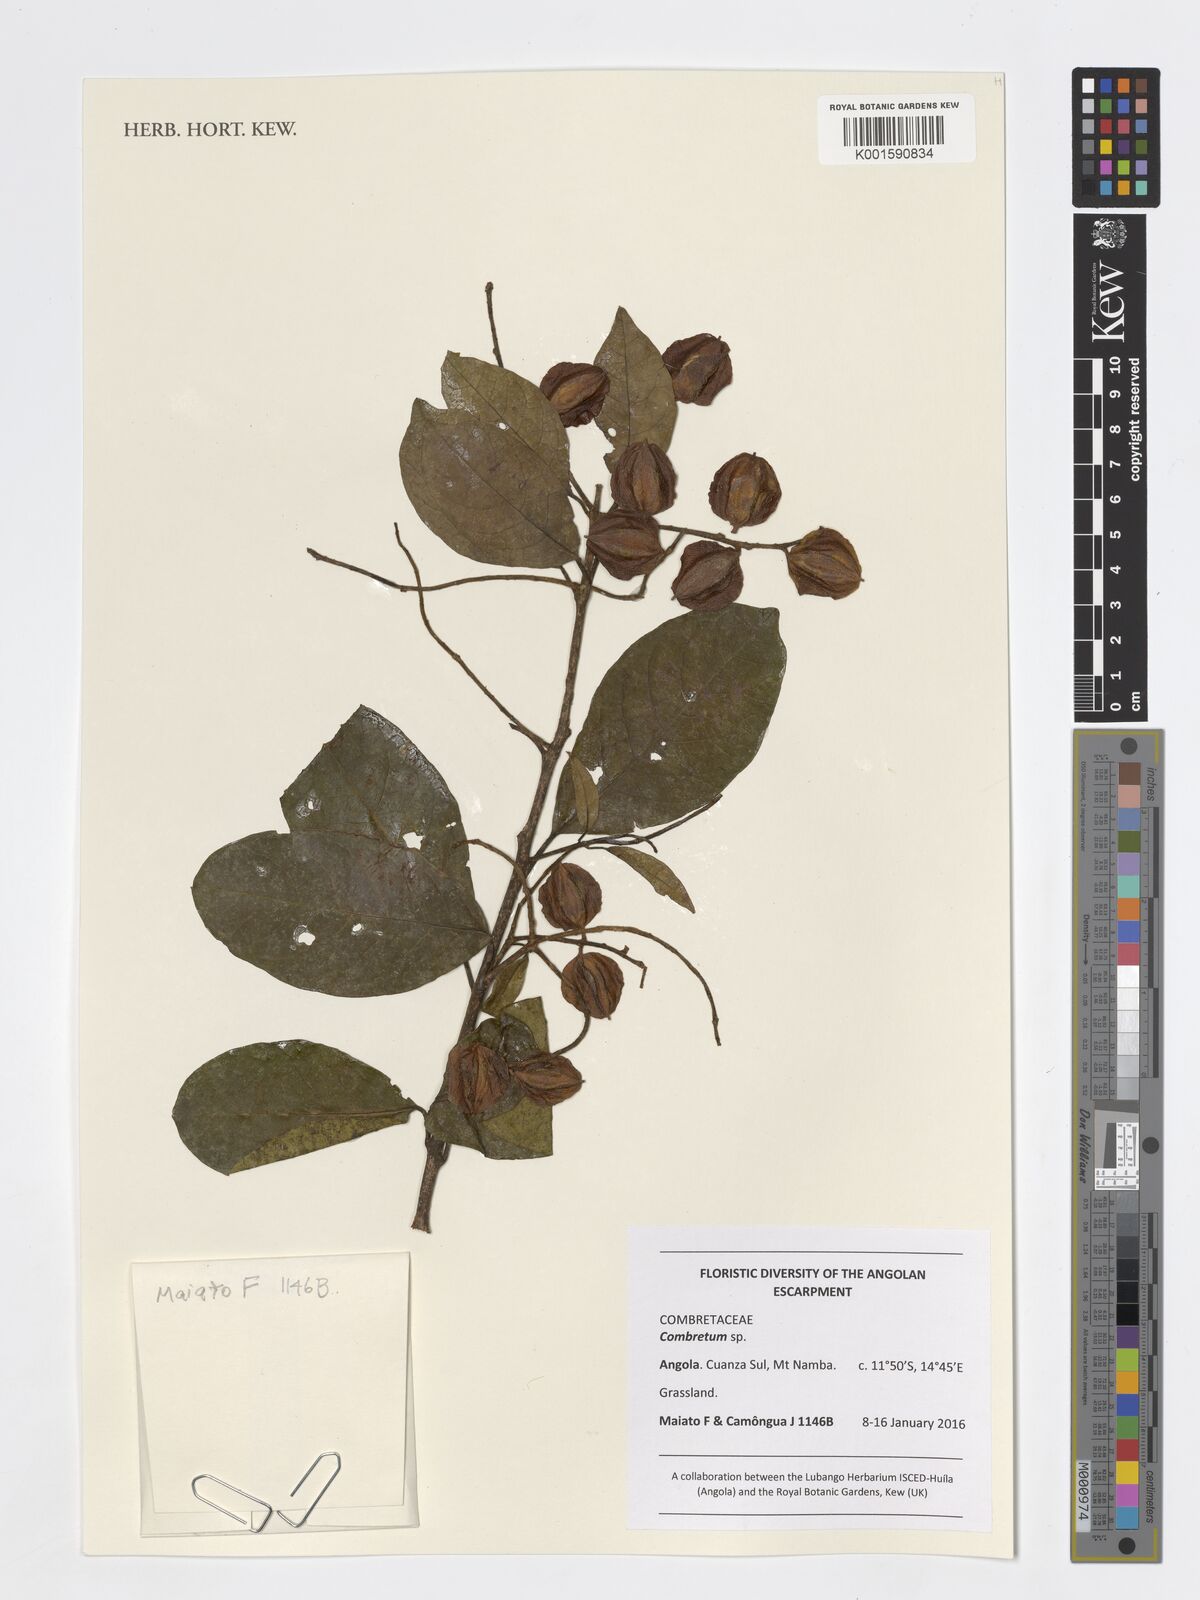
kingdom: Plantae
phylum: Tracheophyta
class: Magnoliopsida
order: Myrtales
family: Combretaceae
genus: Combretum
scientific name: Combretum
